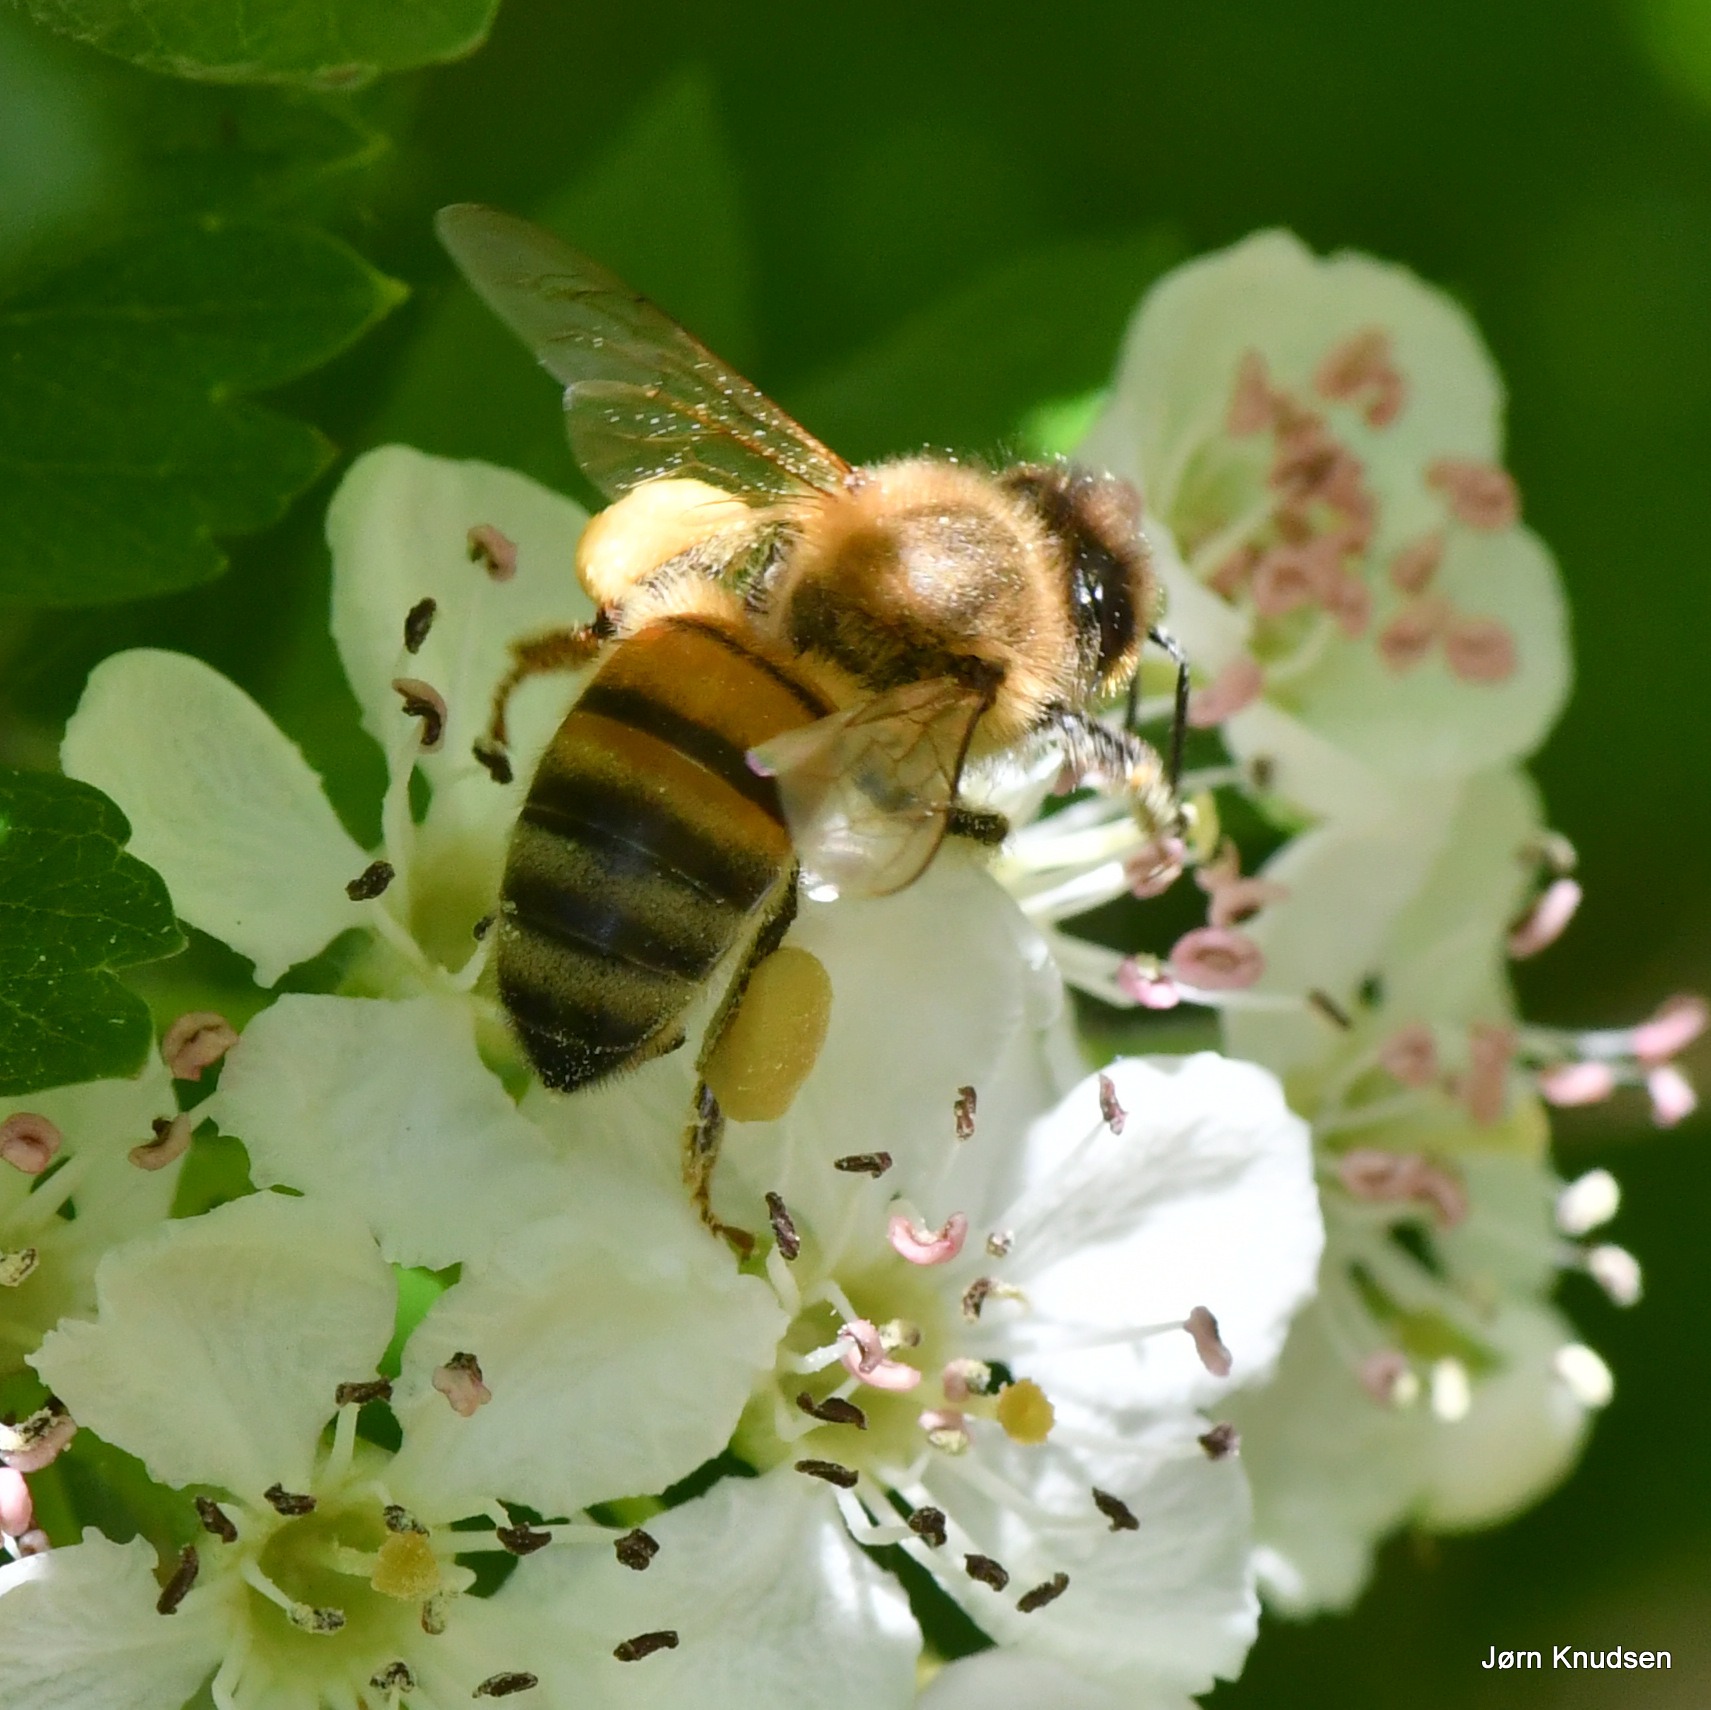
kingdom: Animalia
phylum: Arthropoda
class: Insecta
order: Hymenoptera
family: Apidae
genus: Apis
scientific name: Apis mellifera
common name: Honningbi
